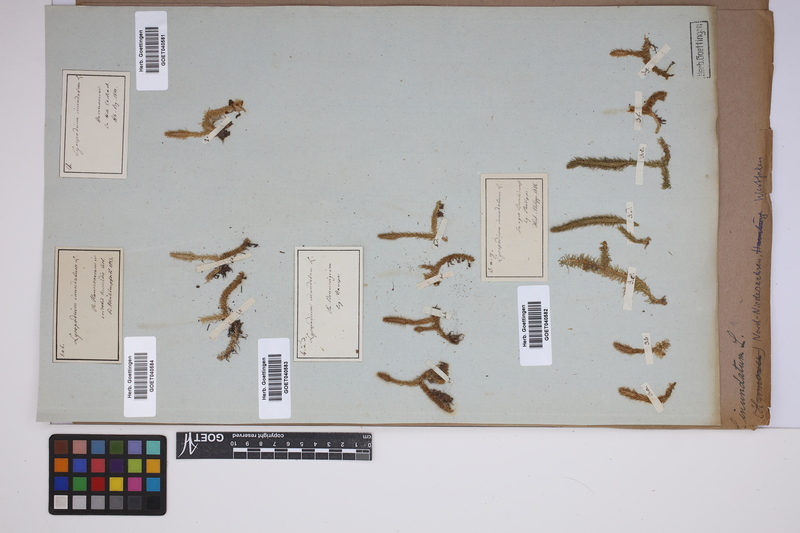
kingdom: Plantae
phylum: Tracheophyta
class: Lycopodiopsida
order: Lycopodiales
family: Lycopodiaceae
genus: Lycopodiella
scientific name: Lycopodiella inundata
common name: Marsh clubmoss
